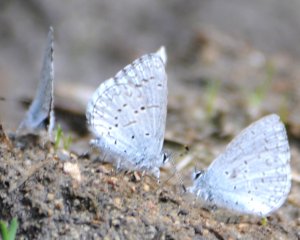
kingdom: Animalia
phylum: Arthropoda
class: Insecta
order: Lepidoptera
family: Lycaenidae
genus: Celastrina
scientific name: Celastrina ladon
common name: Spring Azure
